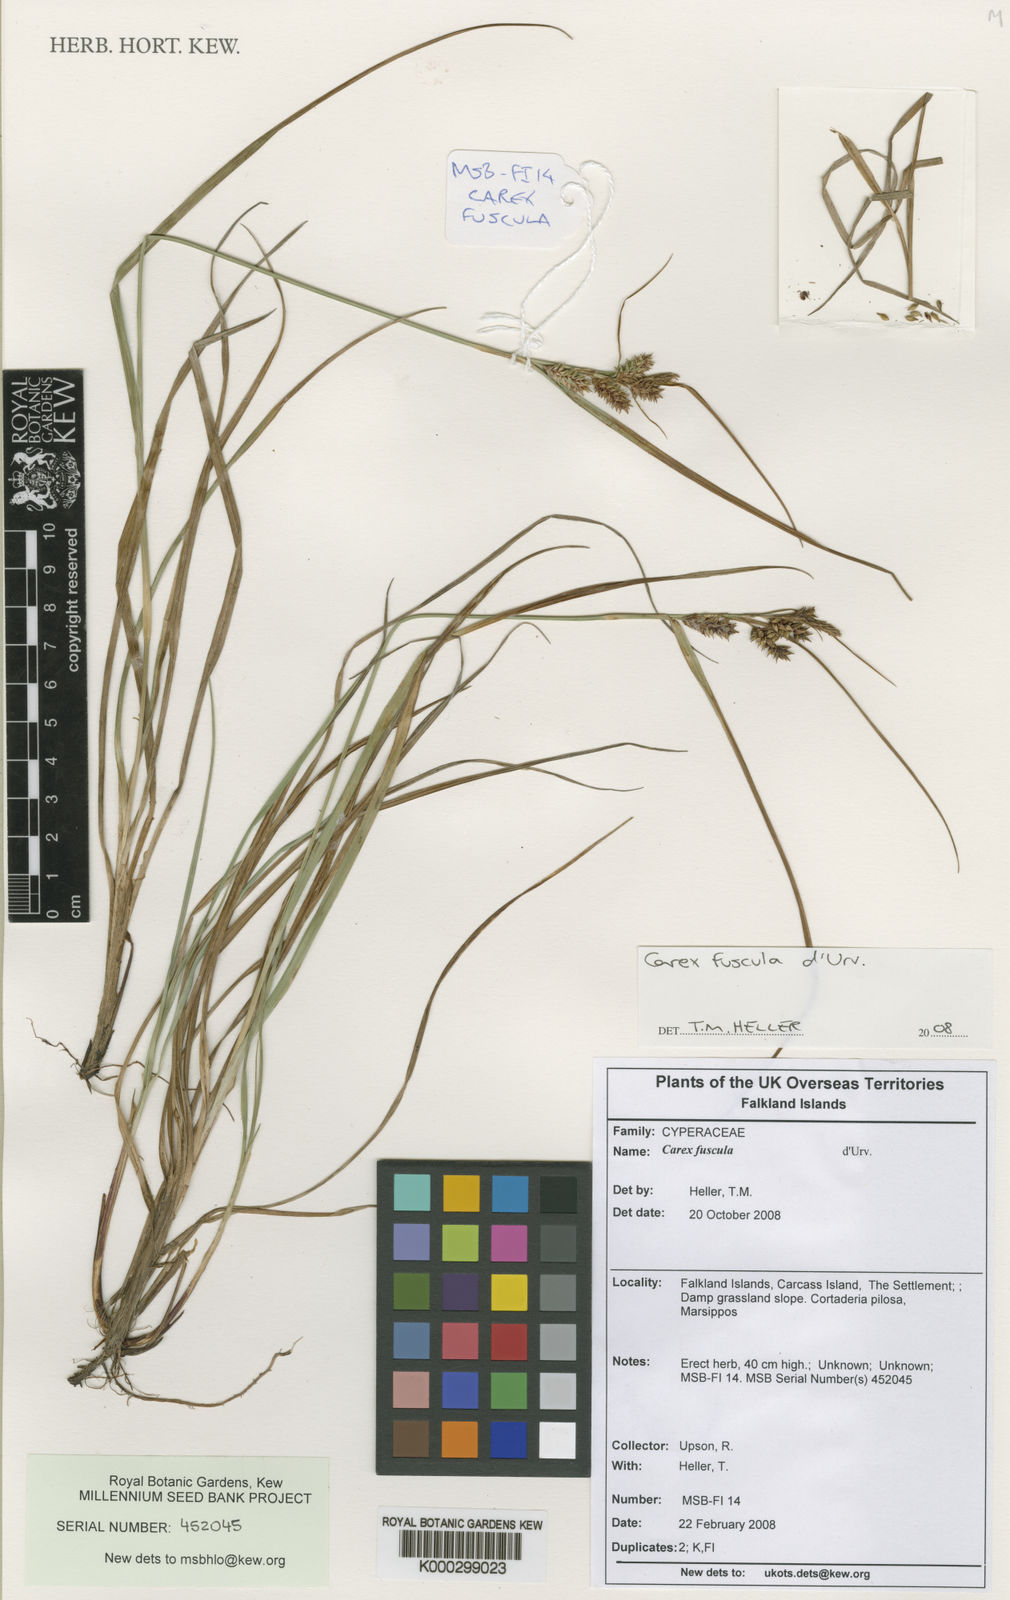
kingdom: Plantae
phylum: Tracheophyta
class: Liliopsida
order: Poales
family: Cyperaceae
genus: Carex
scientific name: Carex fuscula
